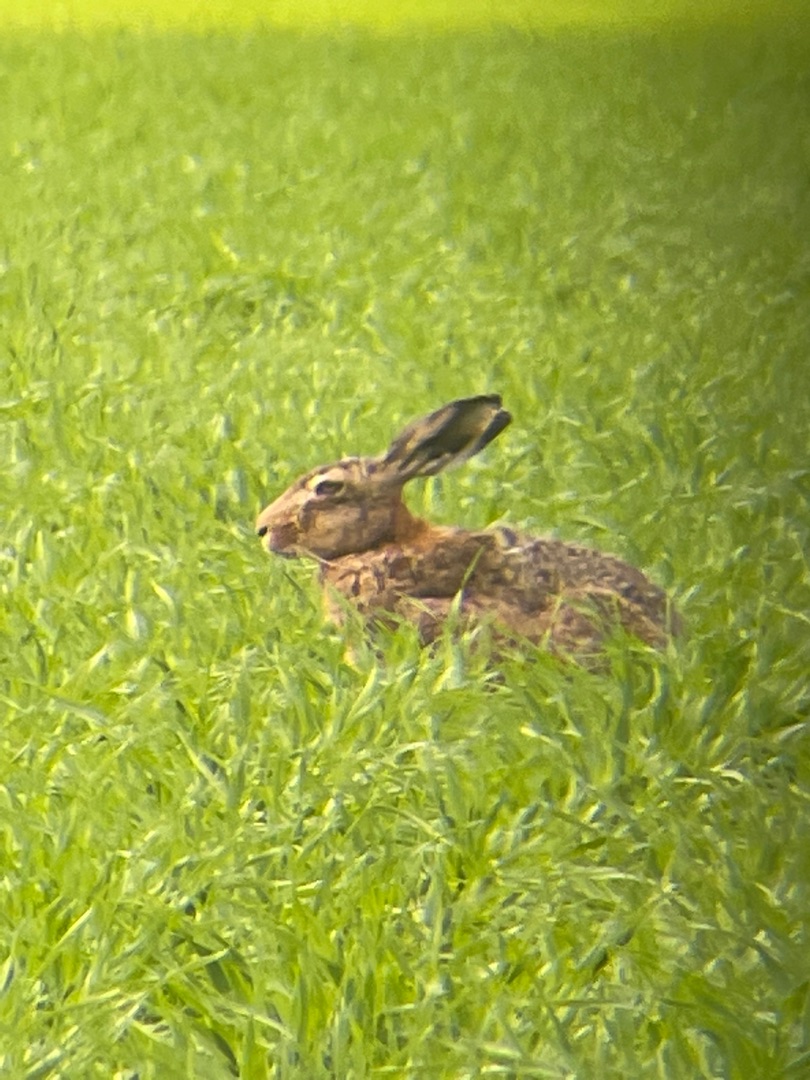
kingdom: Animalia
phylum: Chordata
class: Mammalia
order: Lagomorpha
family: Leporidae
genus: Lepus
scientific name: Lepus europaeus
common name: Hare
